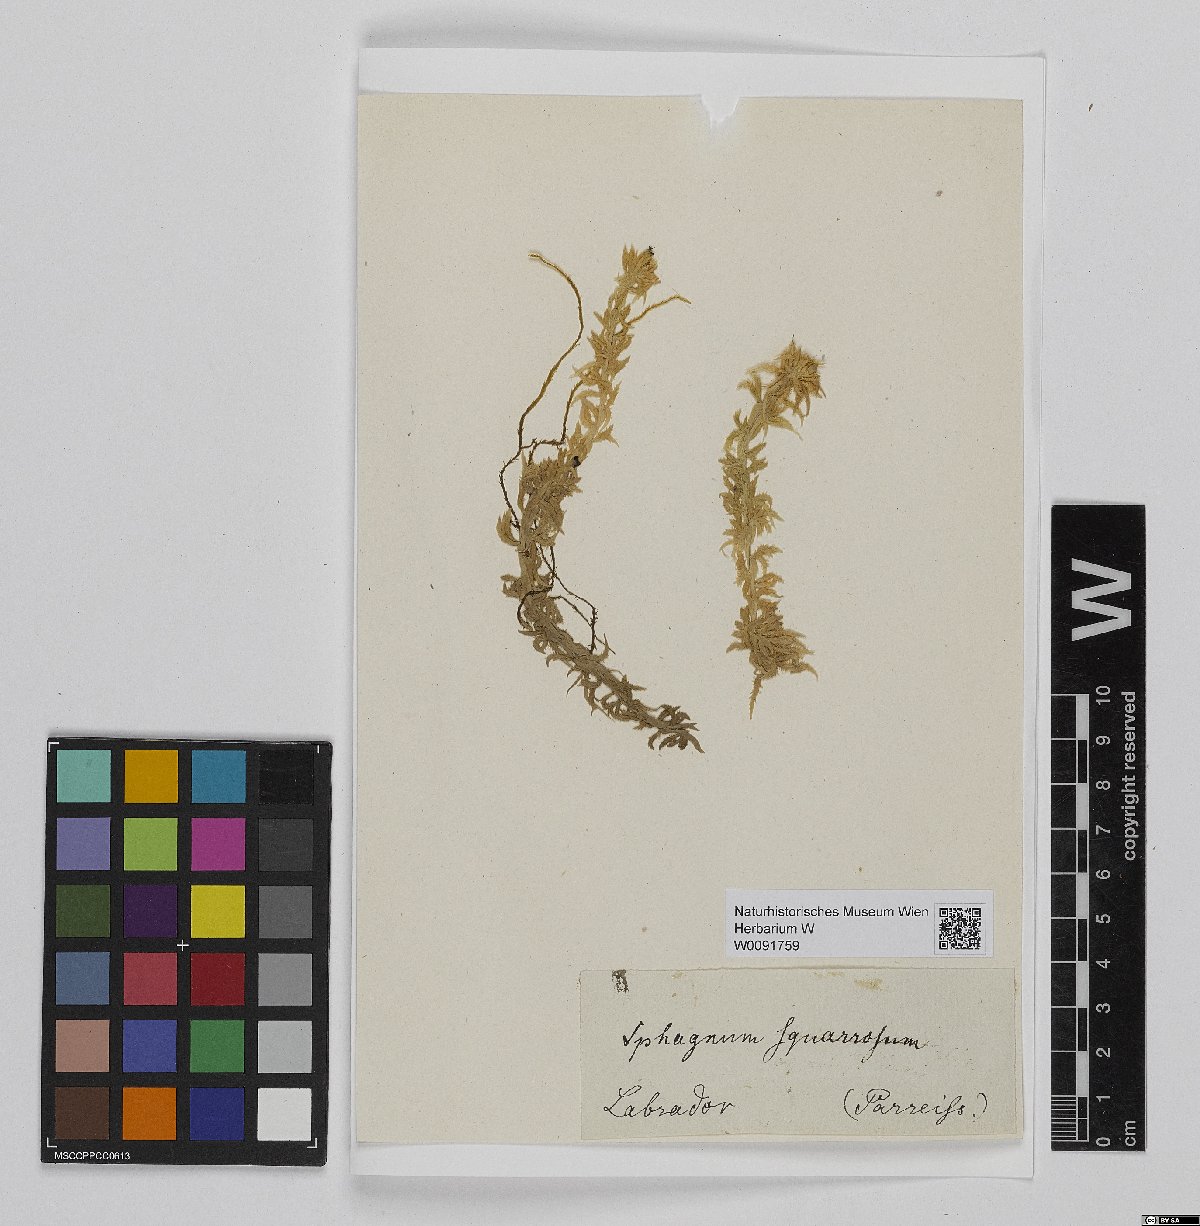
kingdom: Plantae
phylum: Bryophyta
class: Sphagnopsida
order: Sphagnales
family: Sphagnaceae
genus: Sphagnum
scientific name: Sphagnum squarrosum
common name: Shaggy peat moss
